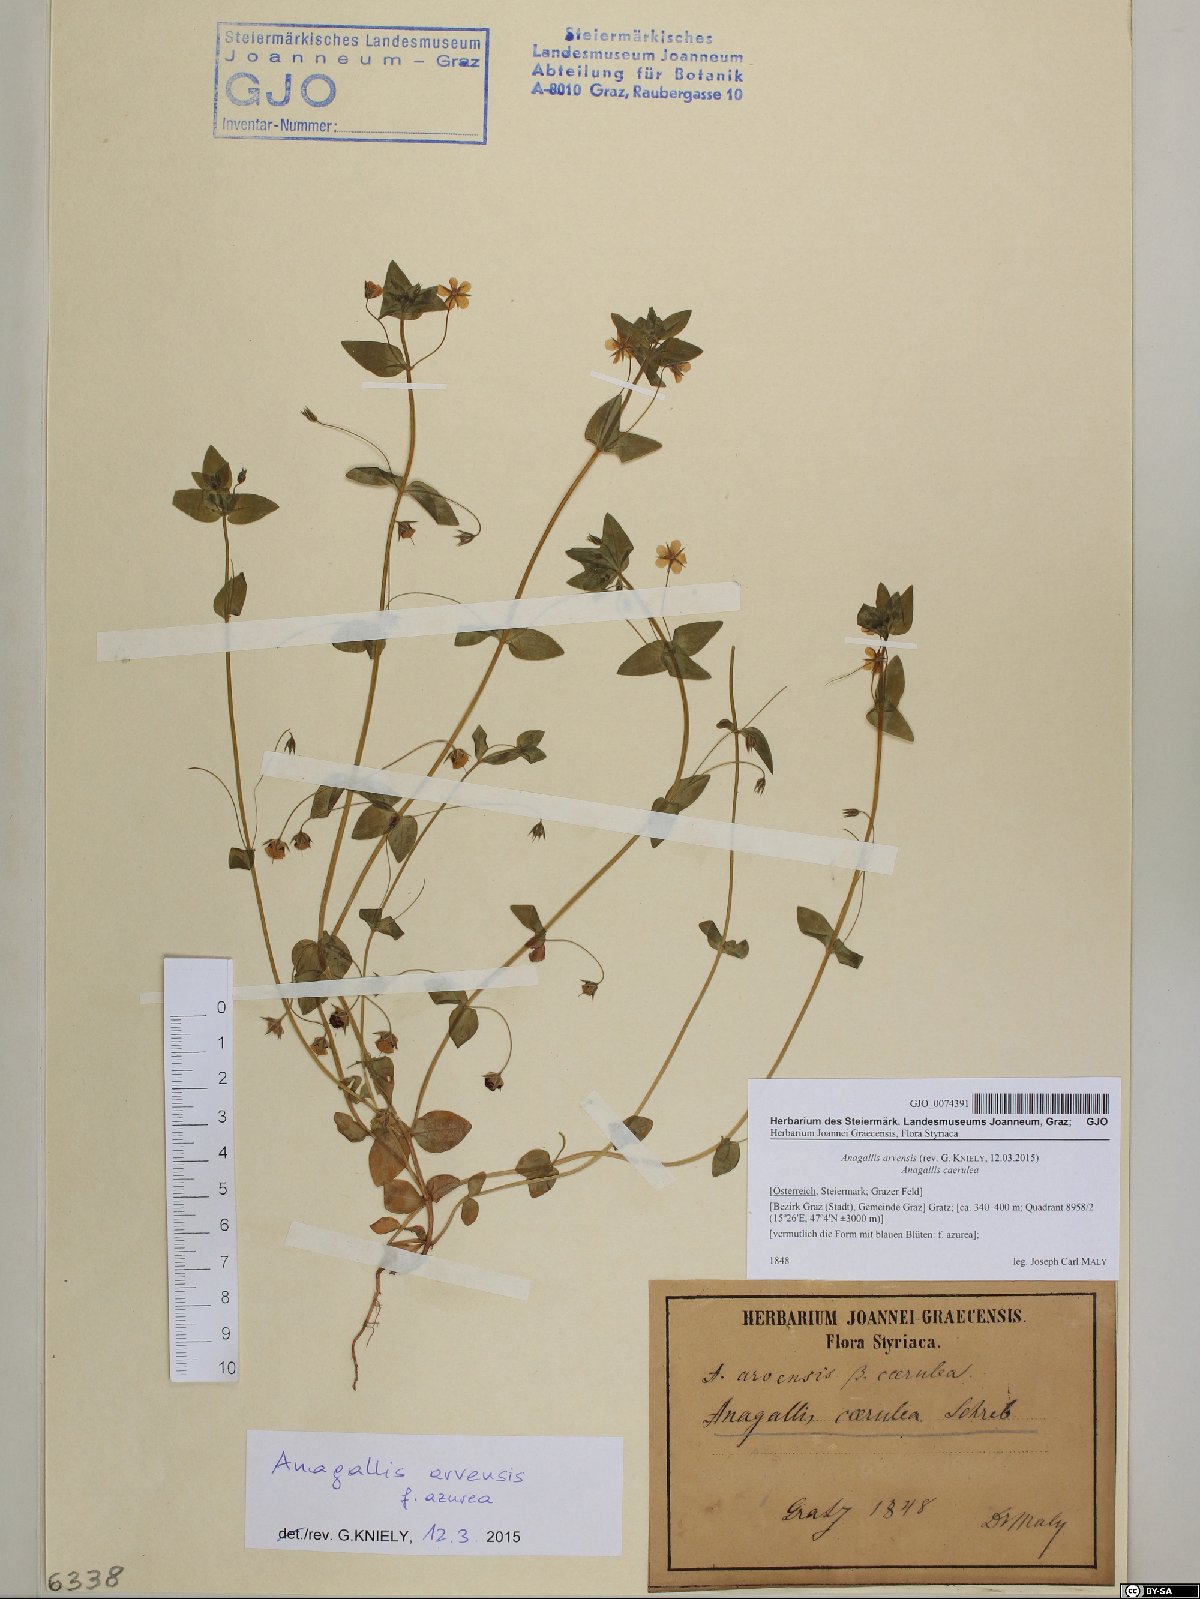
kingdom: Plantae
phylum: Tracheophyta
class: Magnoliopsida
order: Ericales
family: Primulaceae
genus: Lysimachia
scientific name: Lysimachia arvensis
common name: Scarlet pimpernel
